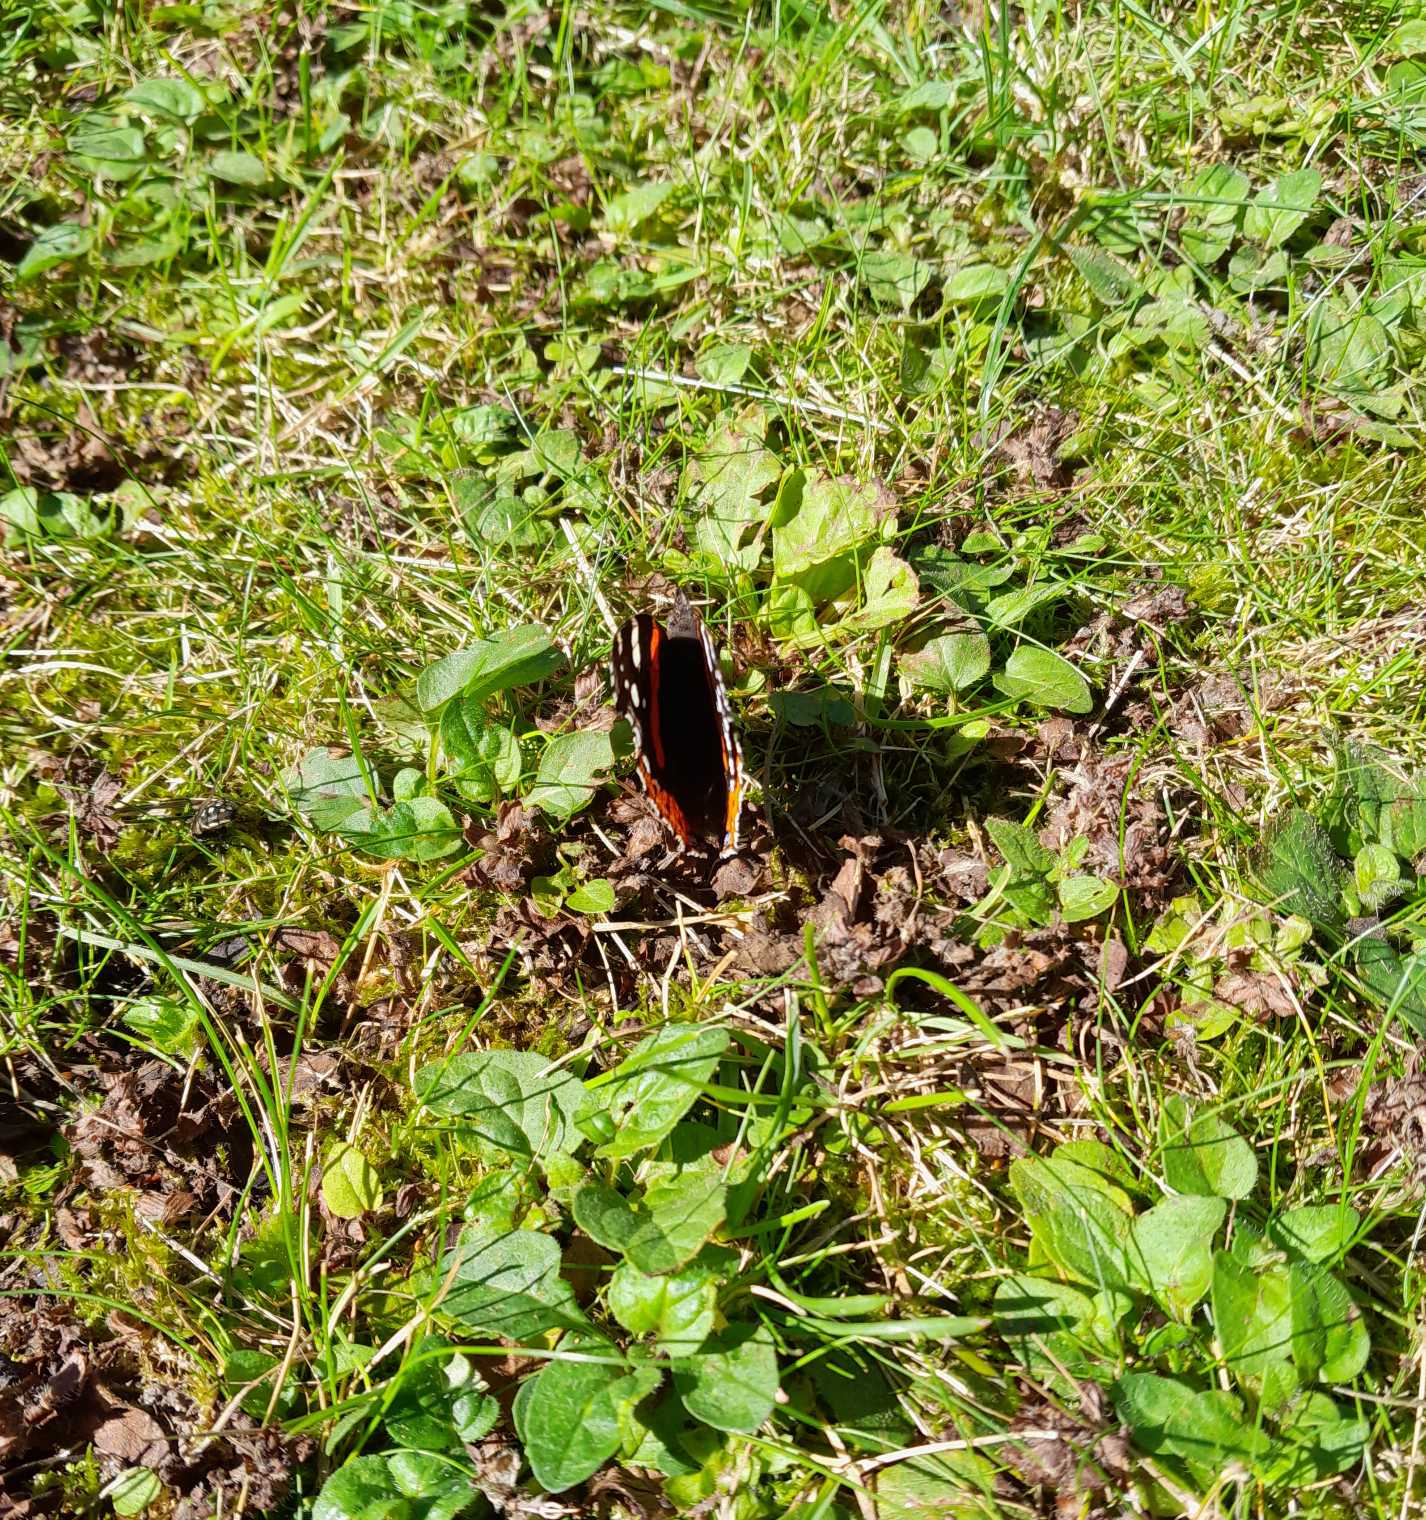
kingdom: Animalia
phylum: Arthropoda
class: Insecta
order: Lepidoptera
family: Nymphalidae
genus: Vanessa
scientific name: Vanessa atalanta
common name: Admiral
